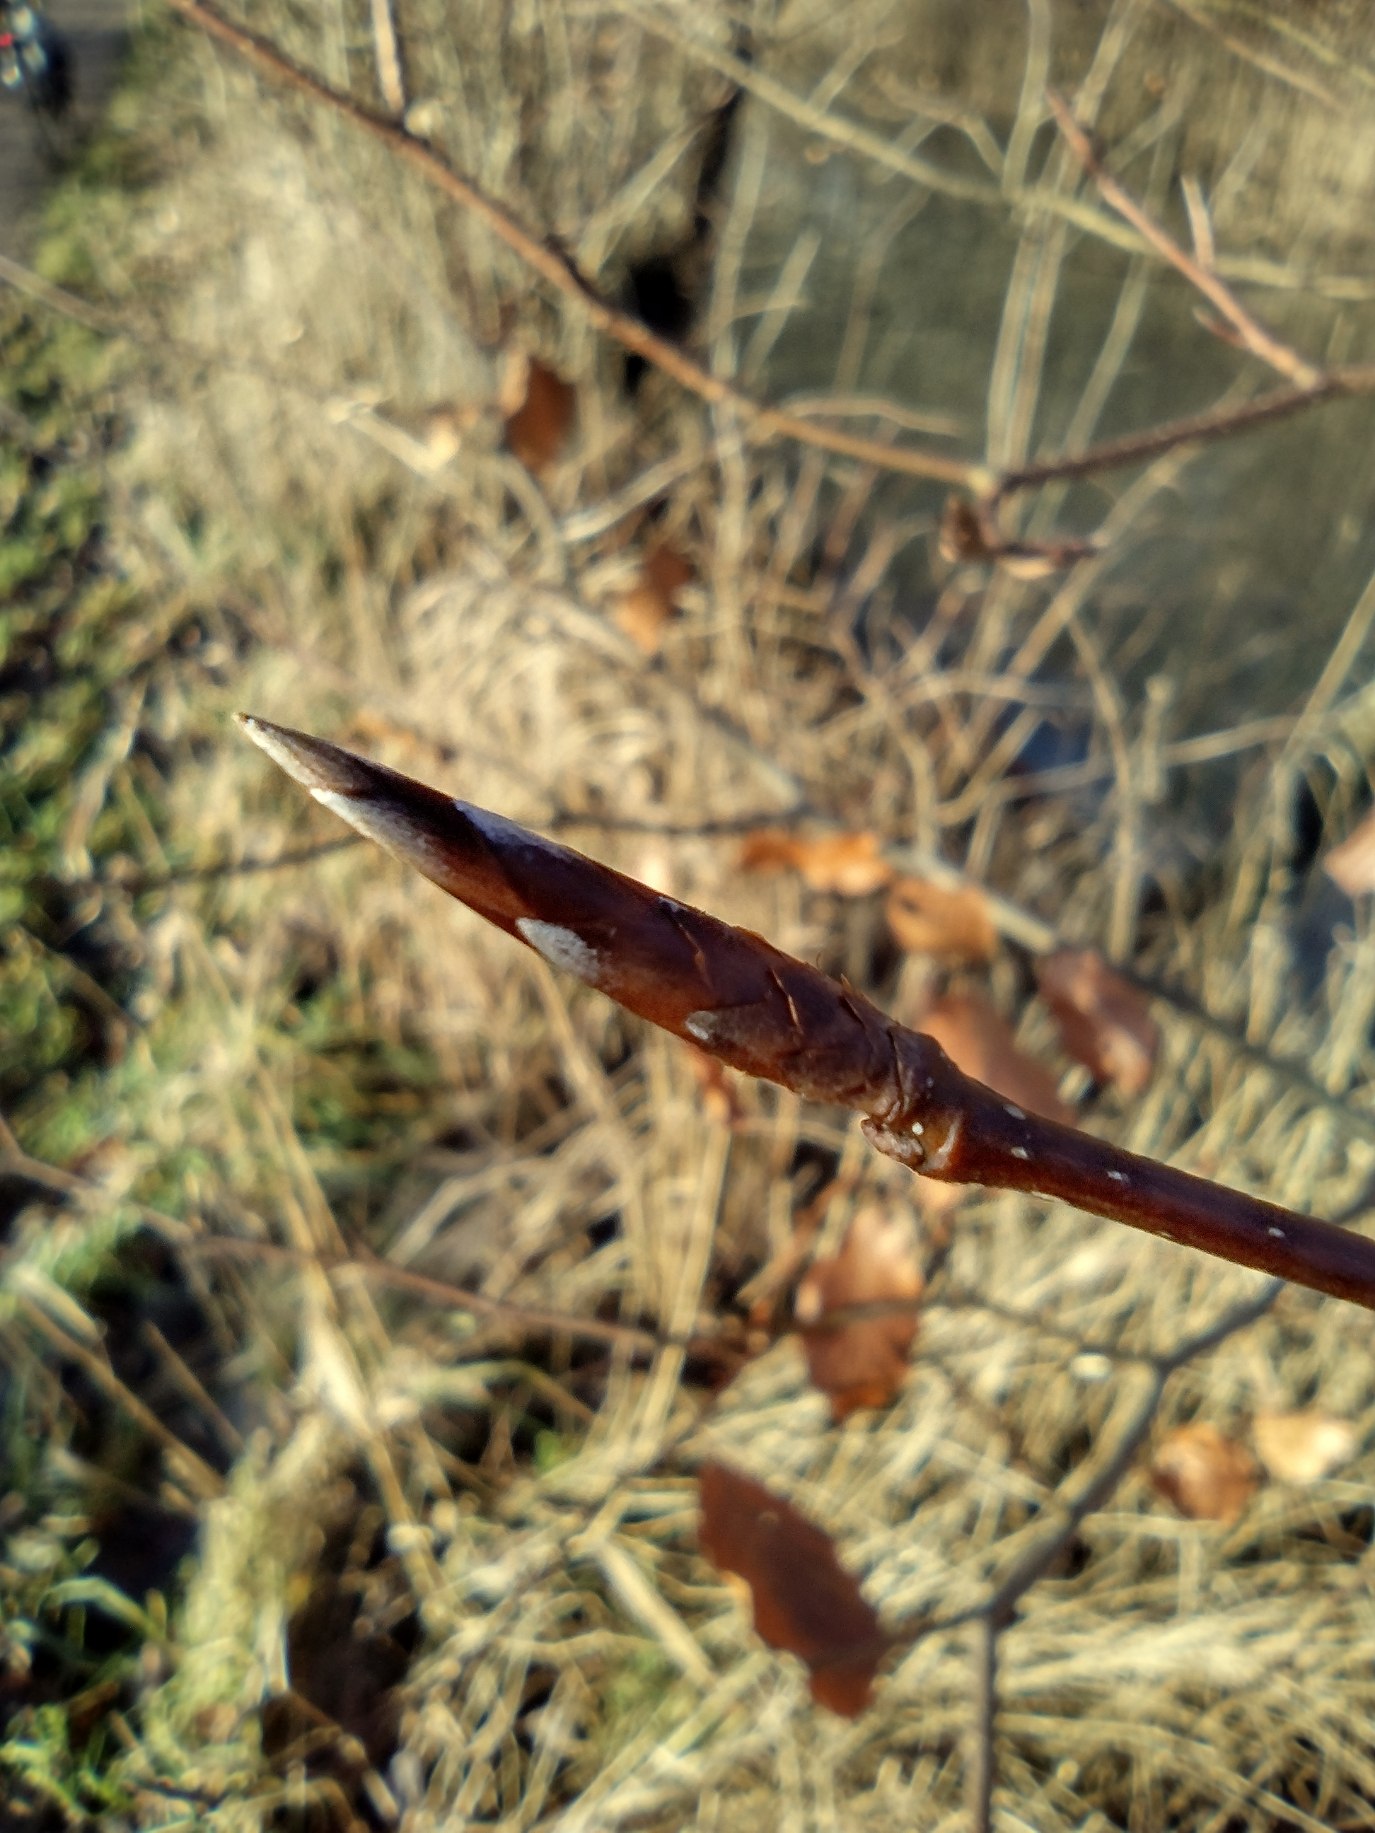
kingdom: Plantae
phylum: Tracheophyta
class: Magnoliopsida
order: Fagales
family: Fagaceae
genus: Fagus
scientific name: Fagus sylvatica
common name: Bøg
